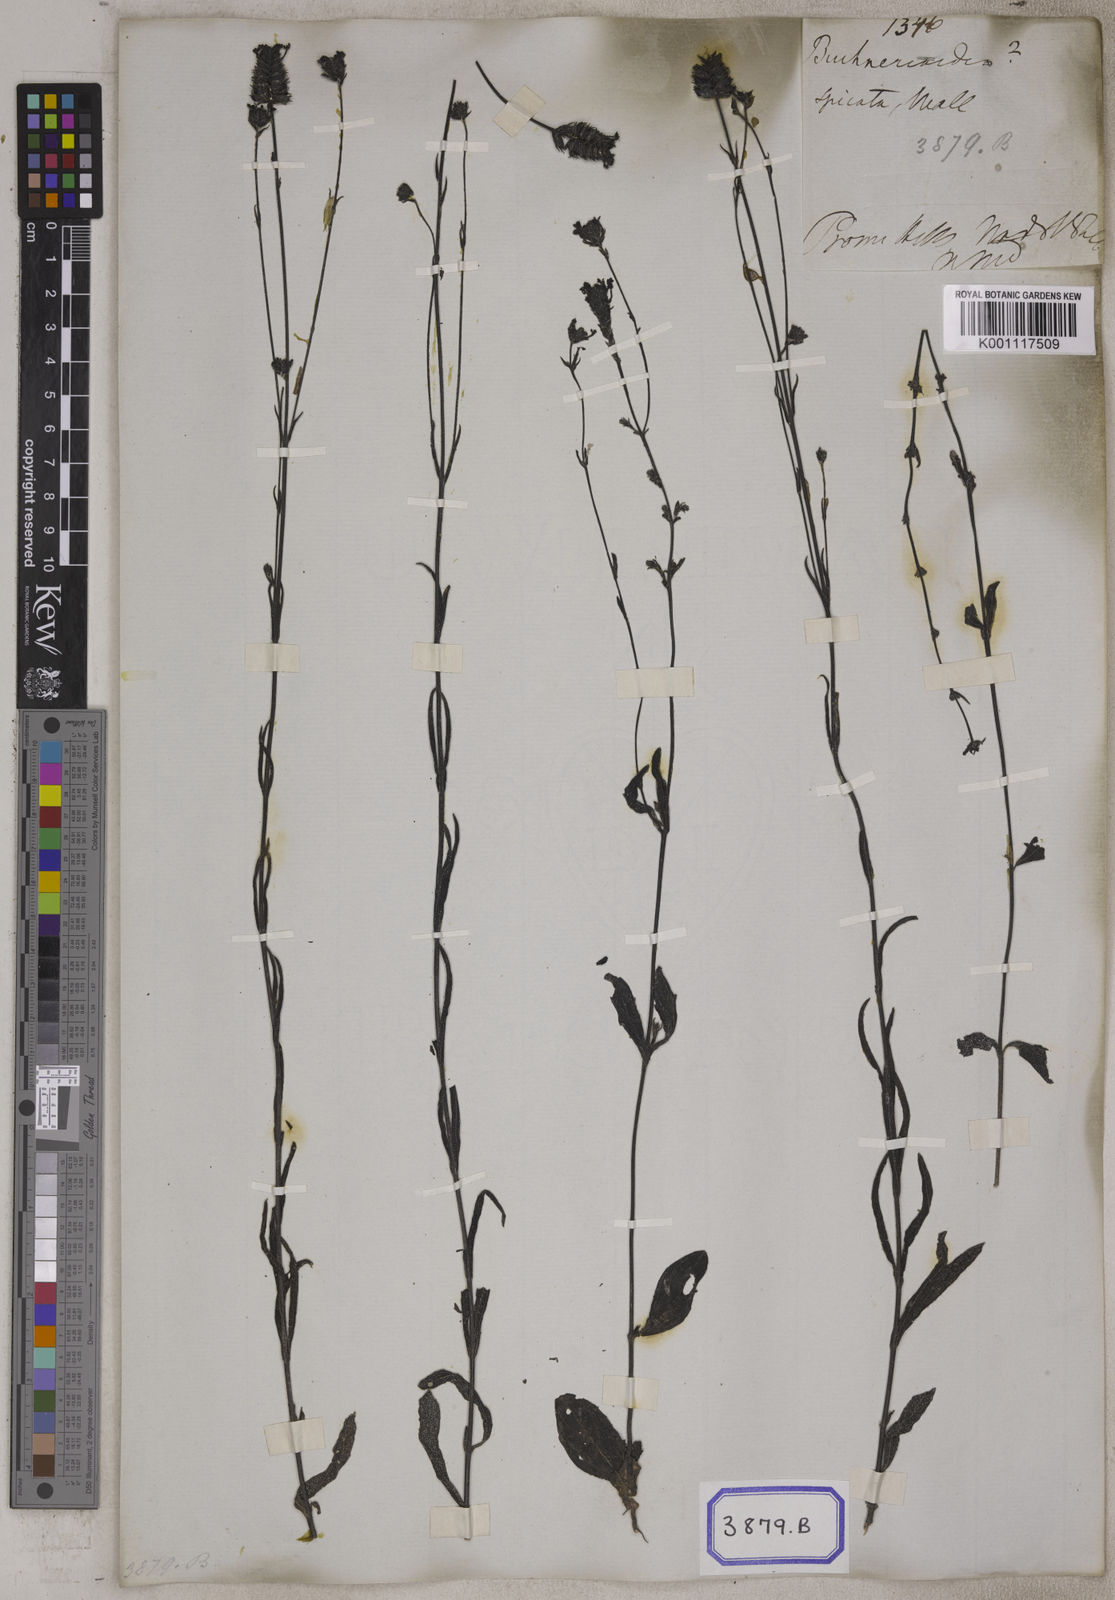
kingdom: Plantae
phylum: Tracheophyta
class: Magnoliopsida
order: Lamiales
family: Orobanchaceae
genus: Buchnera
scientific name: Buchnera cruciata
